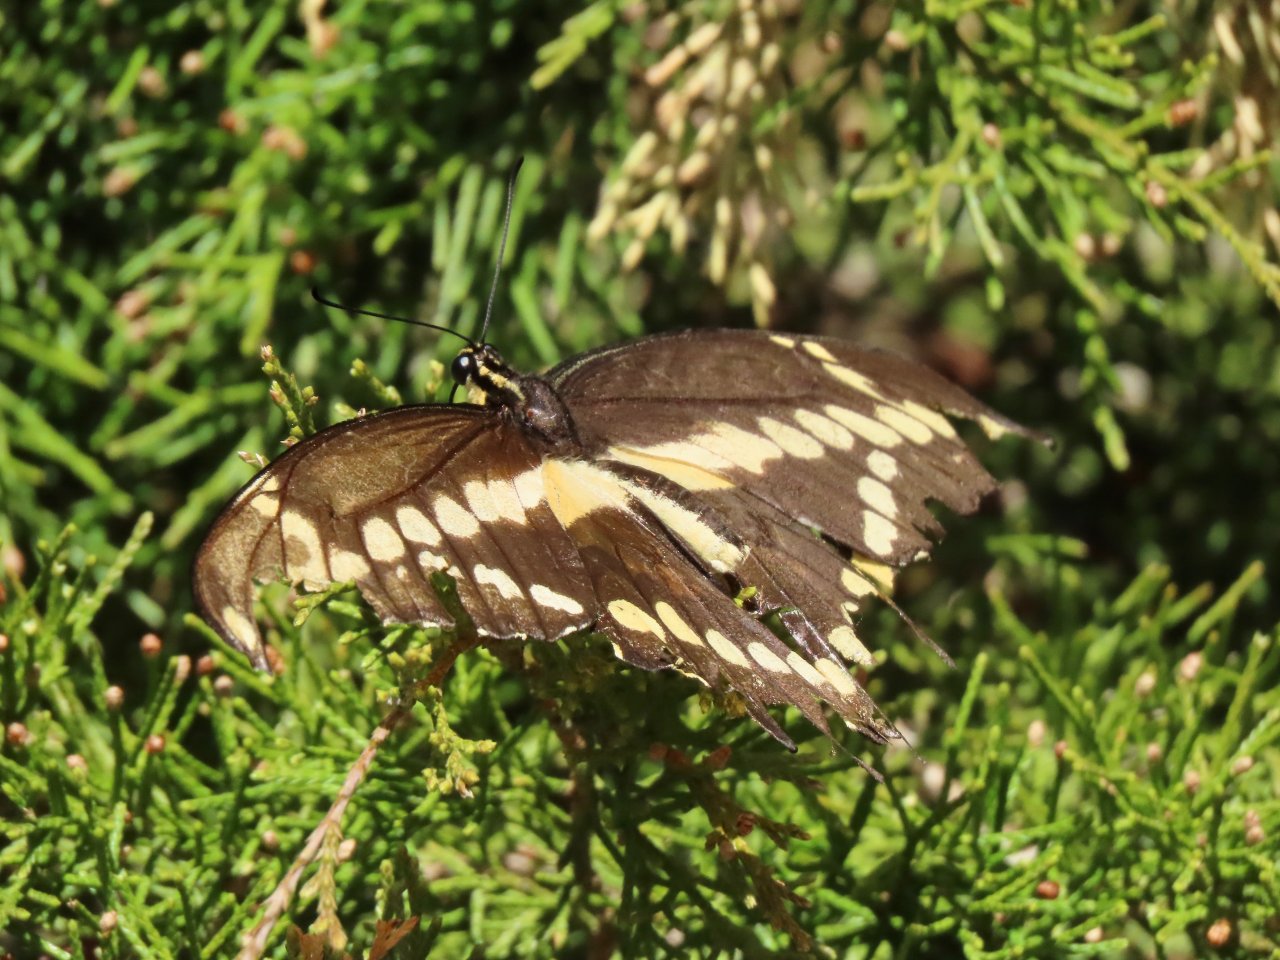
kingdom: Animalia
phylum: Arthropoda
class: Insecta
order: Lepidoptera
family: Papilionidae
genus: Papilio
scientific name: Papilio cresphontes
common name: Eastern Giant Swallowtail
